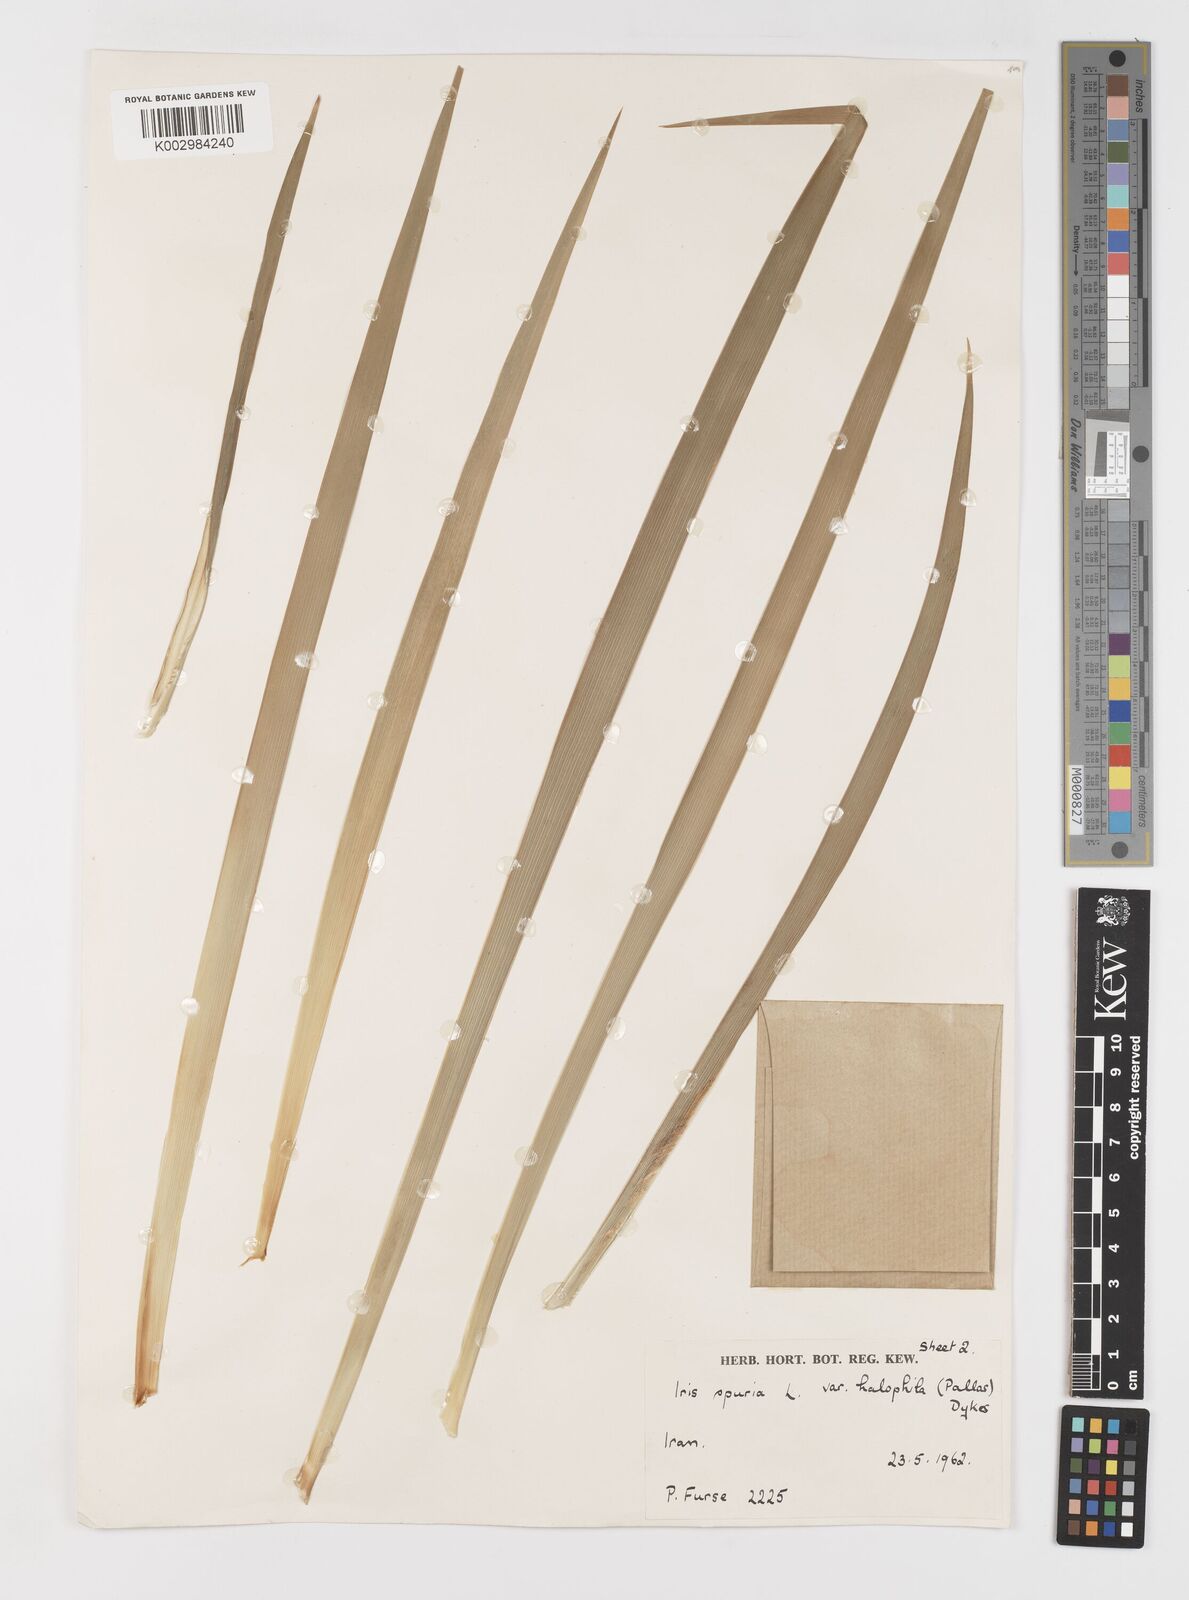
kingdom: Plantae
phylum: Tracheophyta
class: Liliopsida
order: Asparagales
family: Iridaceae
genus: Iris
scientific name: Iris spuria
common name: Blue iris
